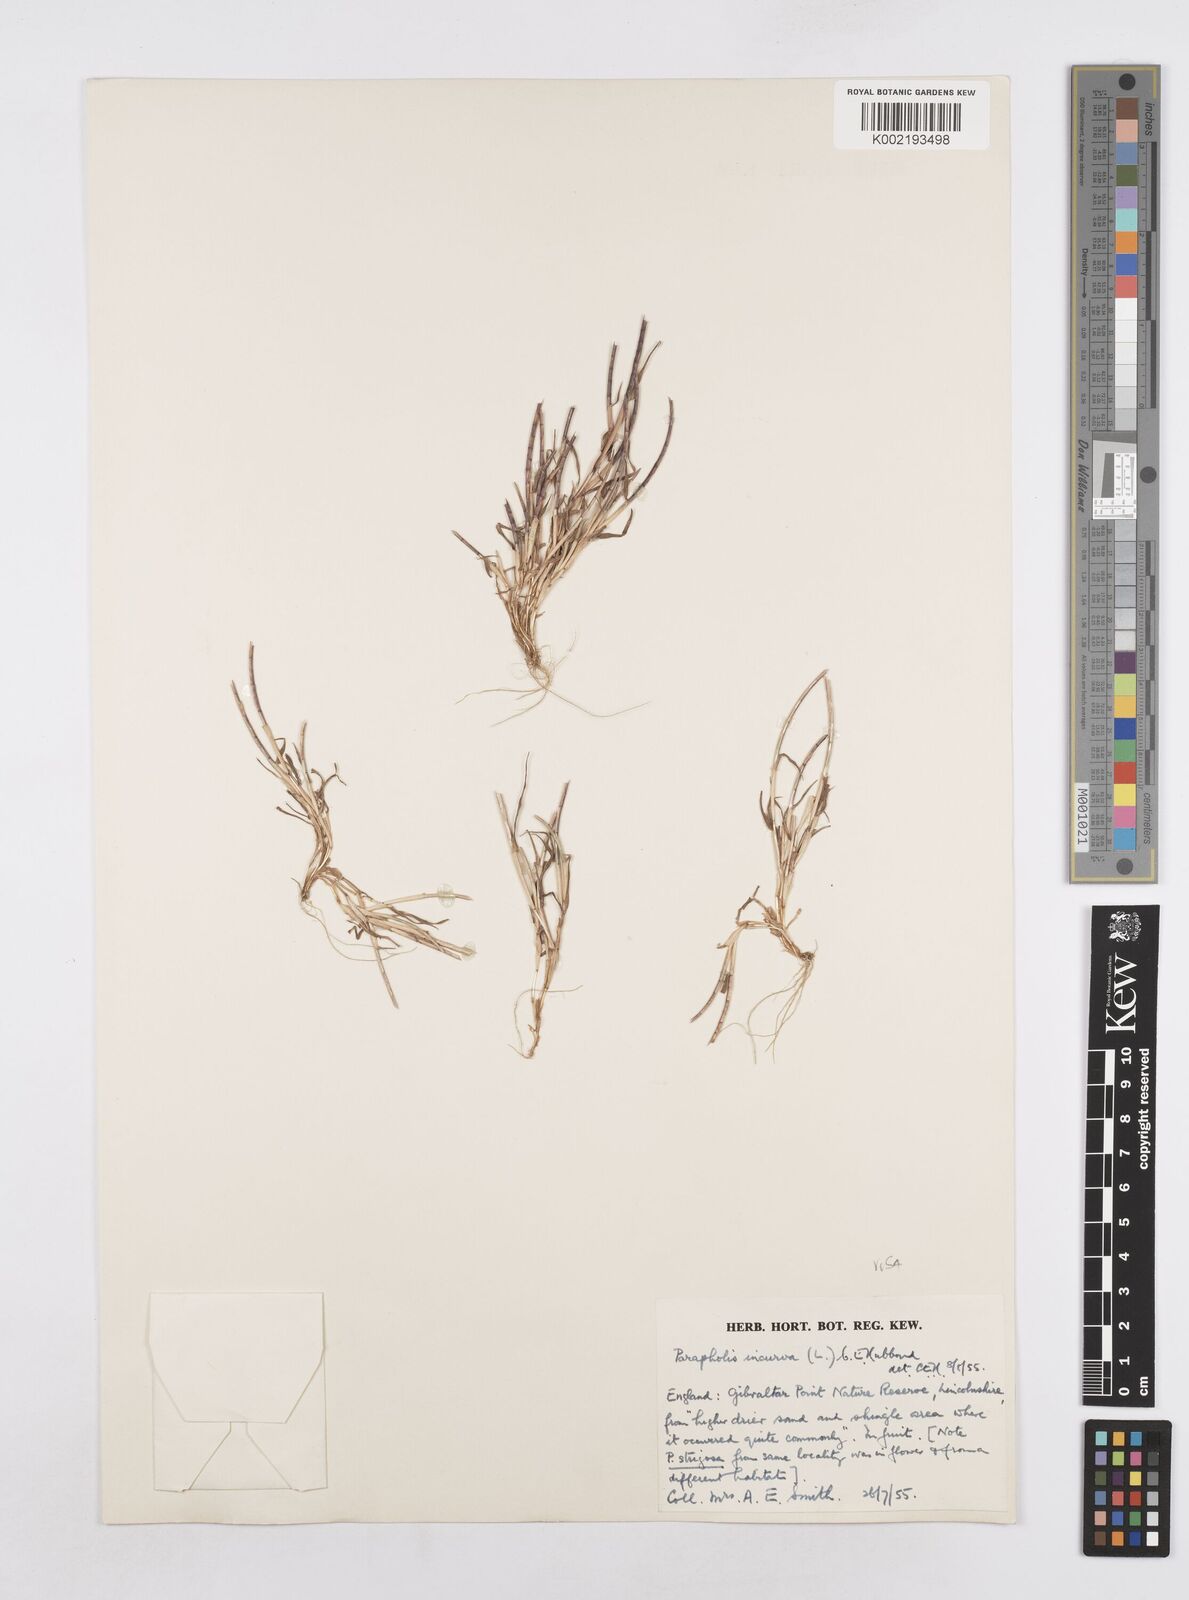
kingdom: Plantae
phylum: Tracheophyta
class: Liliopsida
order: Poales
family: Poaceae
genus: Parapholis
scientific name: Parapholis incurva
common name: Curved sicklegrass
